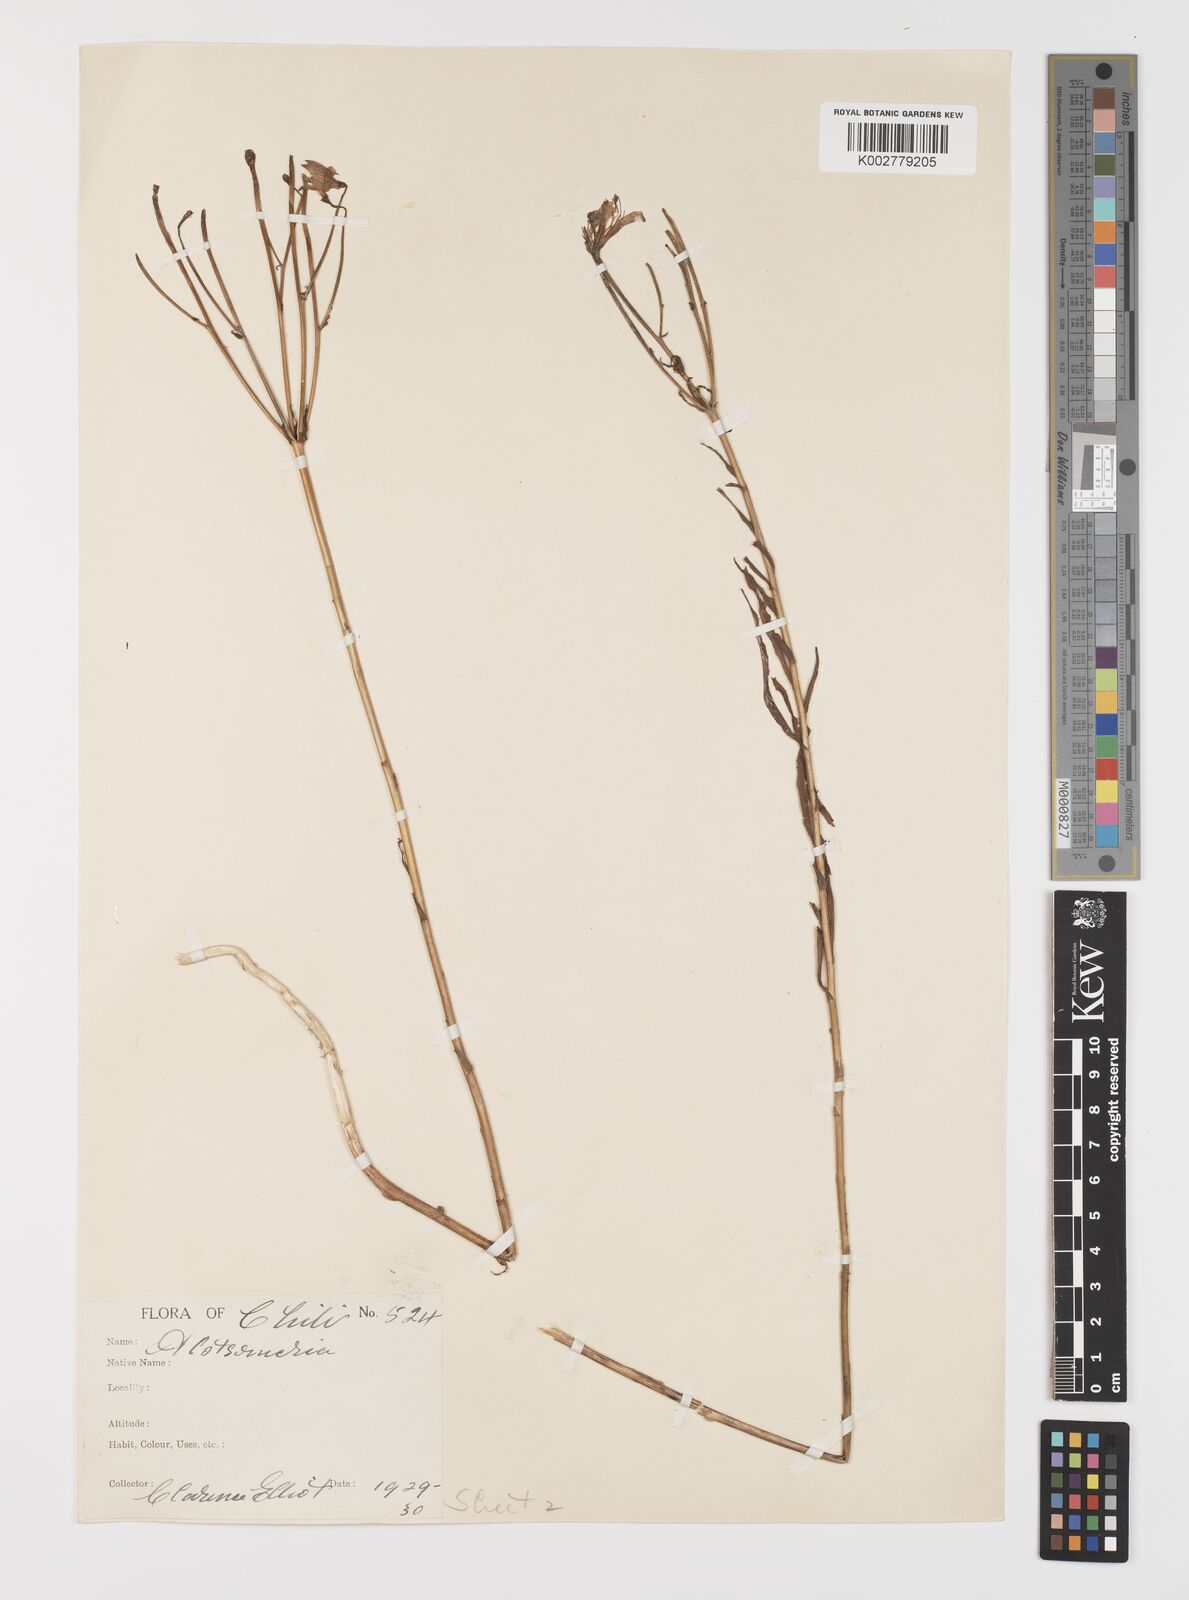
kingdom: Plantae
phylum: Tracheophyta
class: Liliopsida
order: Liliales
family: Alstroemeriaceae
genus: Alstroemeria
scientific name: Alstroemeria angustifolia
